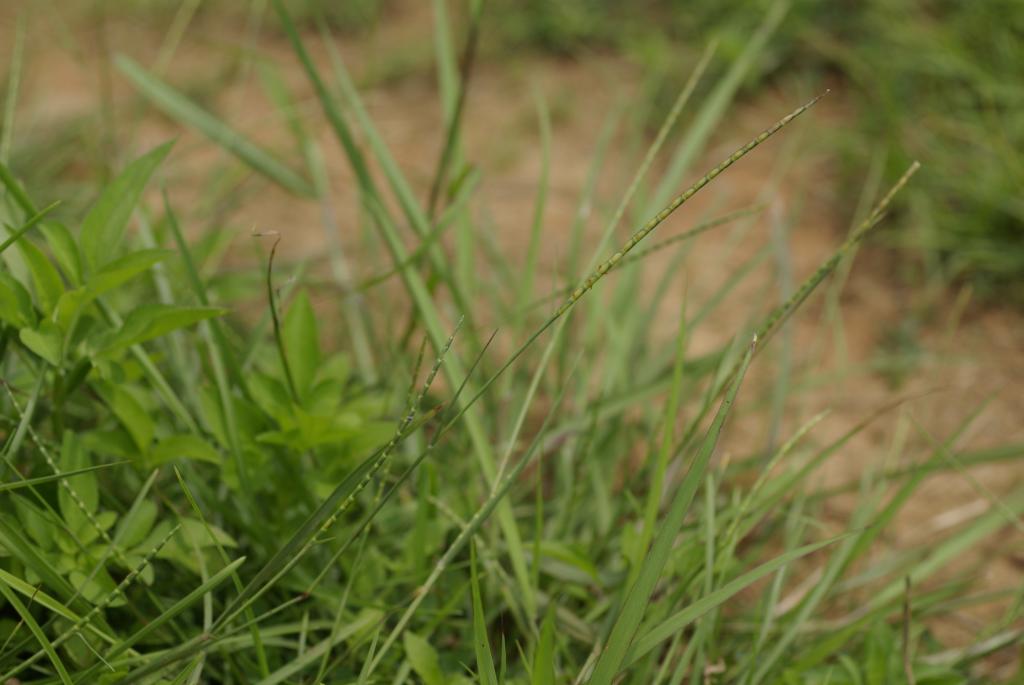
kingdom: Plantae
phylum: Tracheophyta
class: Liliopsida
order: Poales
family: Poaceae
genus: Mnesithea
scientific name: Mnesithea laevis
